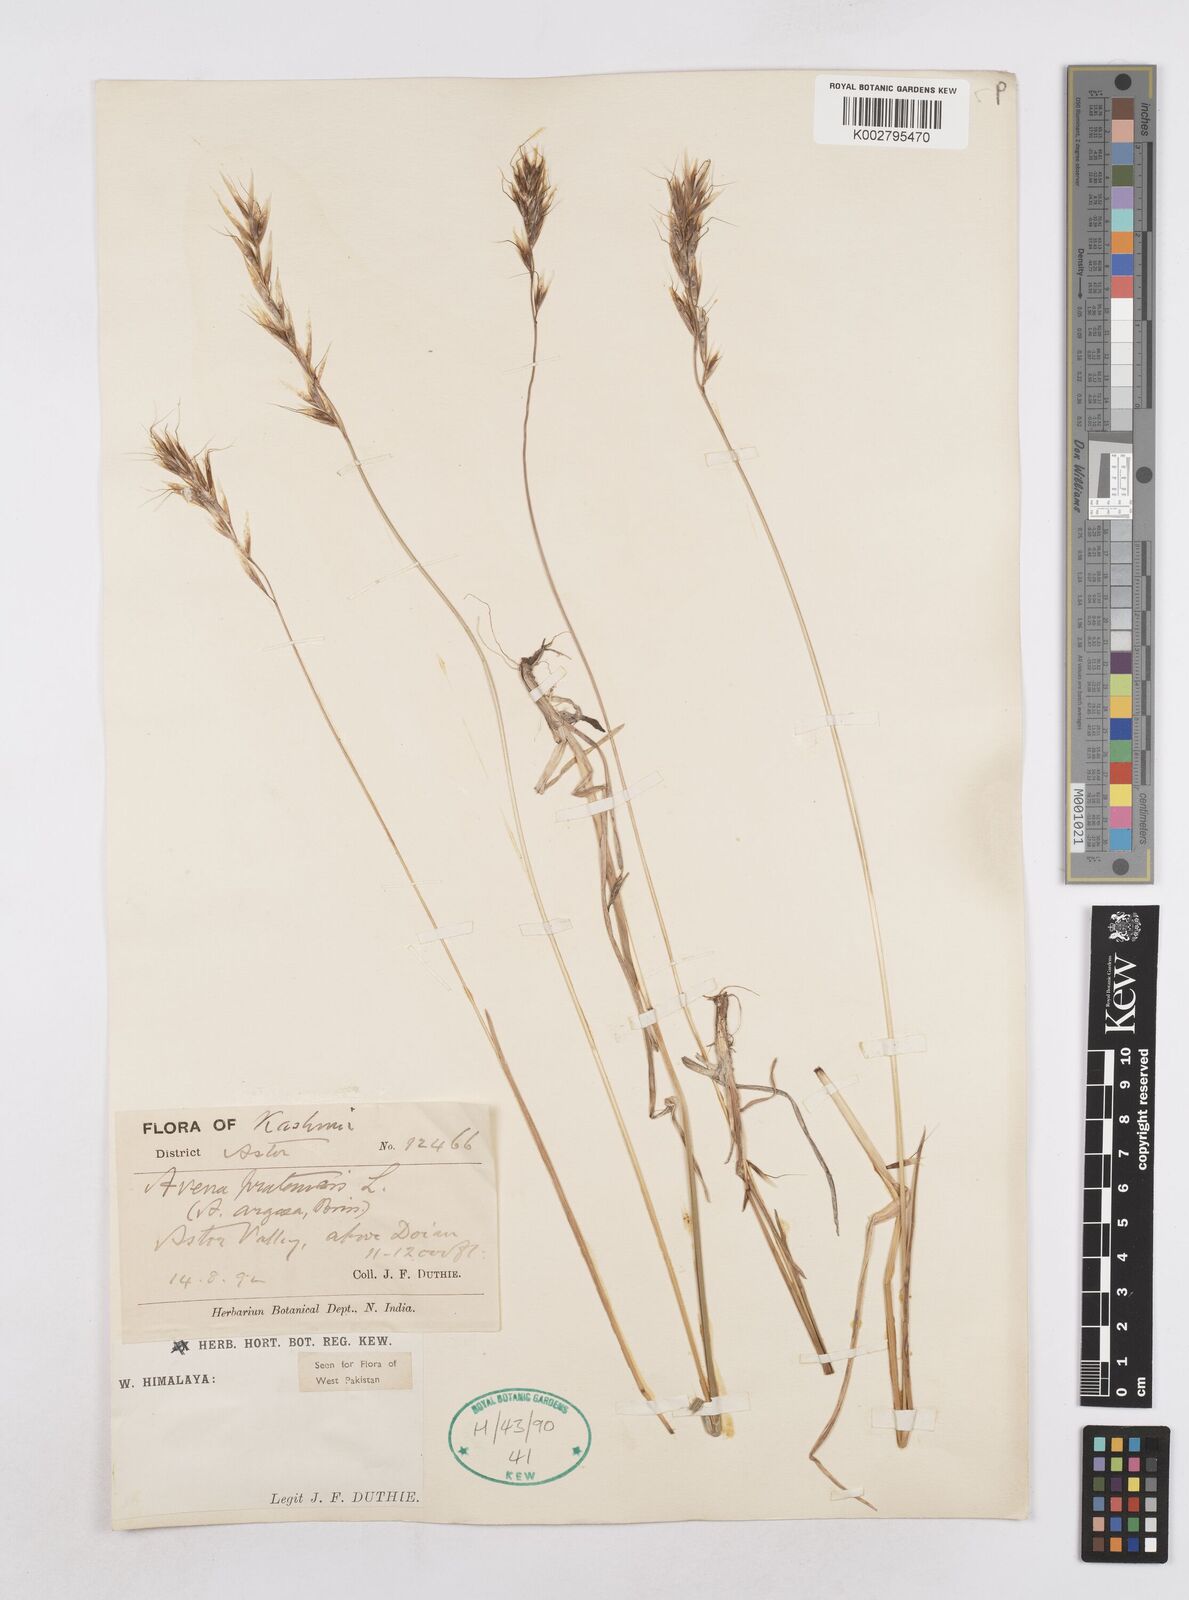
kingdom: Plantae
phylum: Tracheophyta
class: Liliopsida
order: Poales
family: Poaceae
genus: Helictochloa
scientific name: Helictochloa pratensis
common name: Meadow oat grass
